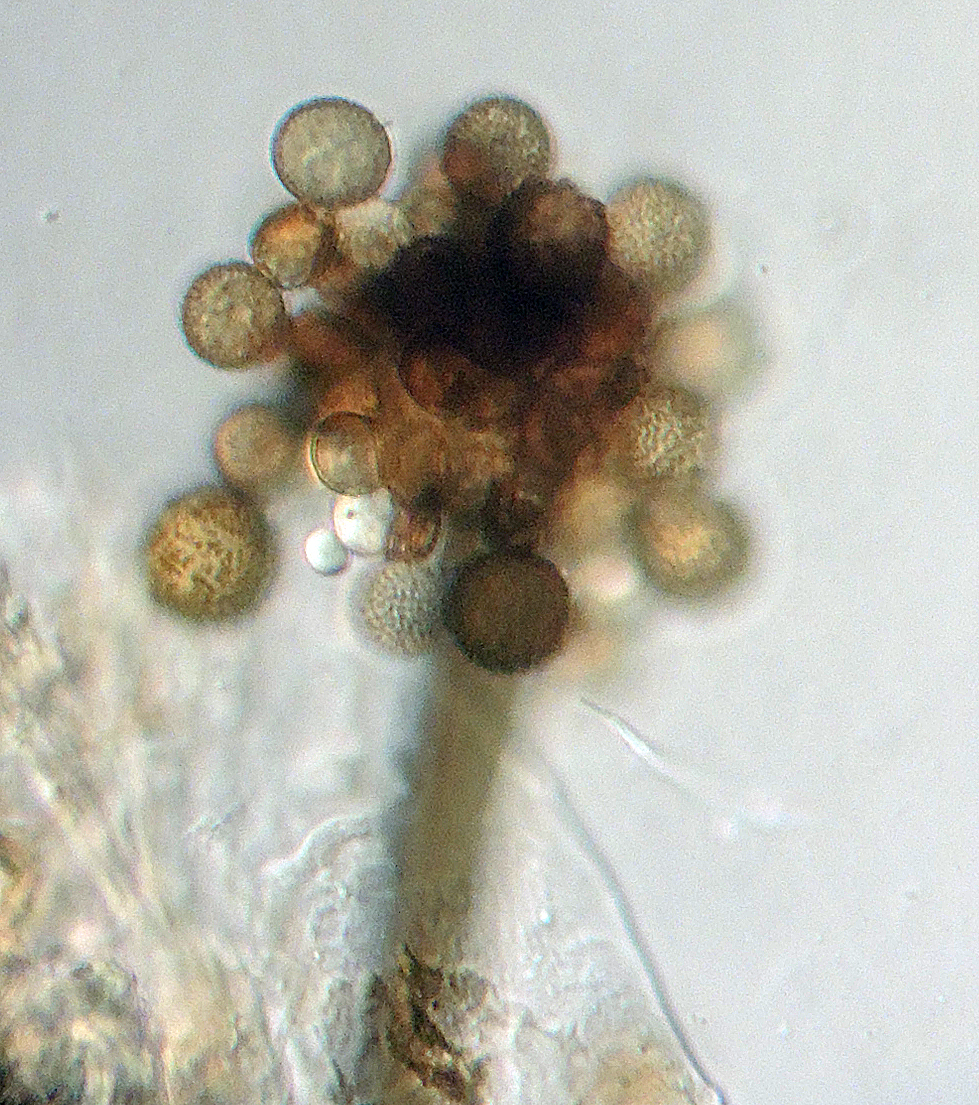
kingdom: Fungi
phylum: Ascomycota
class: Dothideomycetes
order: Pleosporales
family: Periconiaceae
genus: Periconia
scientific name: Periconia byssoides
